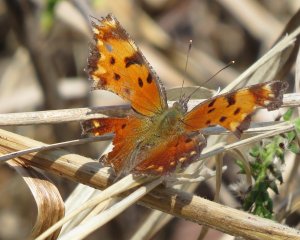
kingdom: Animalia
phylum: Arthropoda
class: Insecta
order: Lepidoptera
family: Nymphalidae
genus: Polygonia
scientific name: Polygonia progne
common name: Gray Comma
